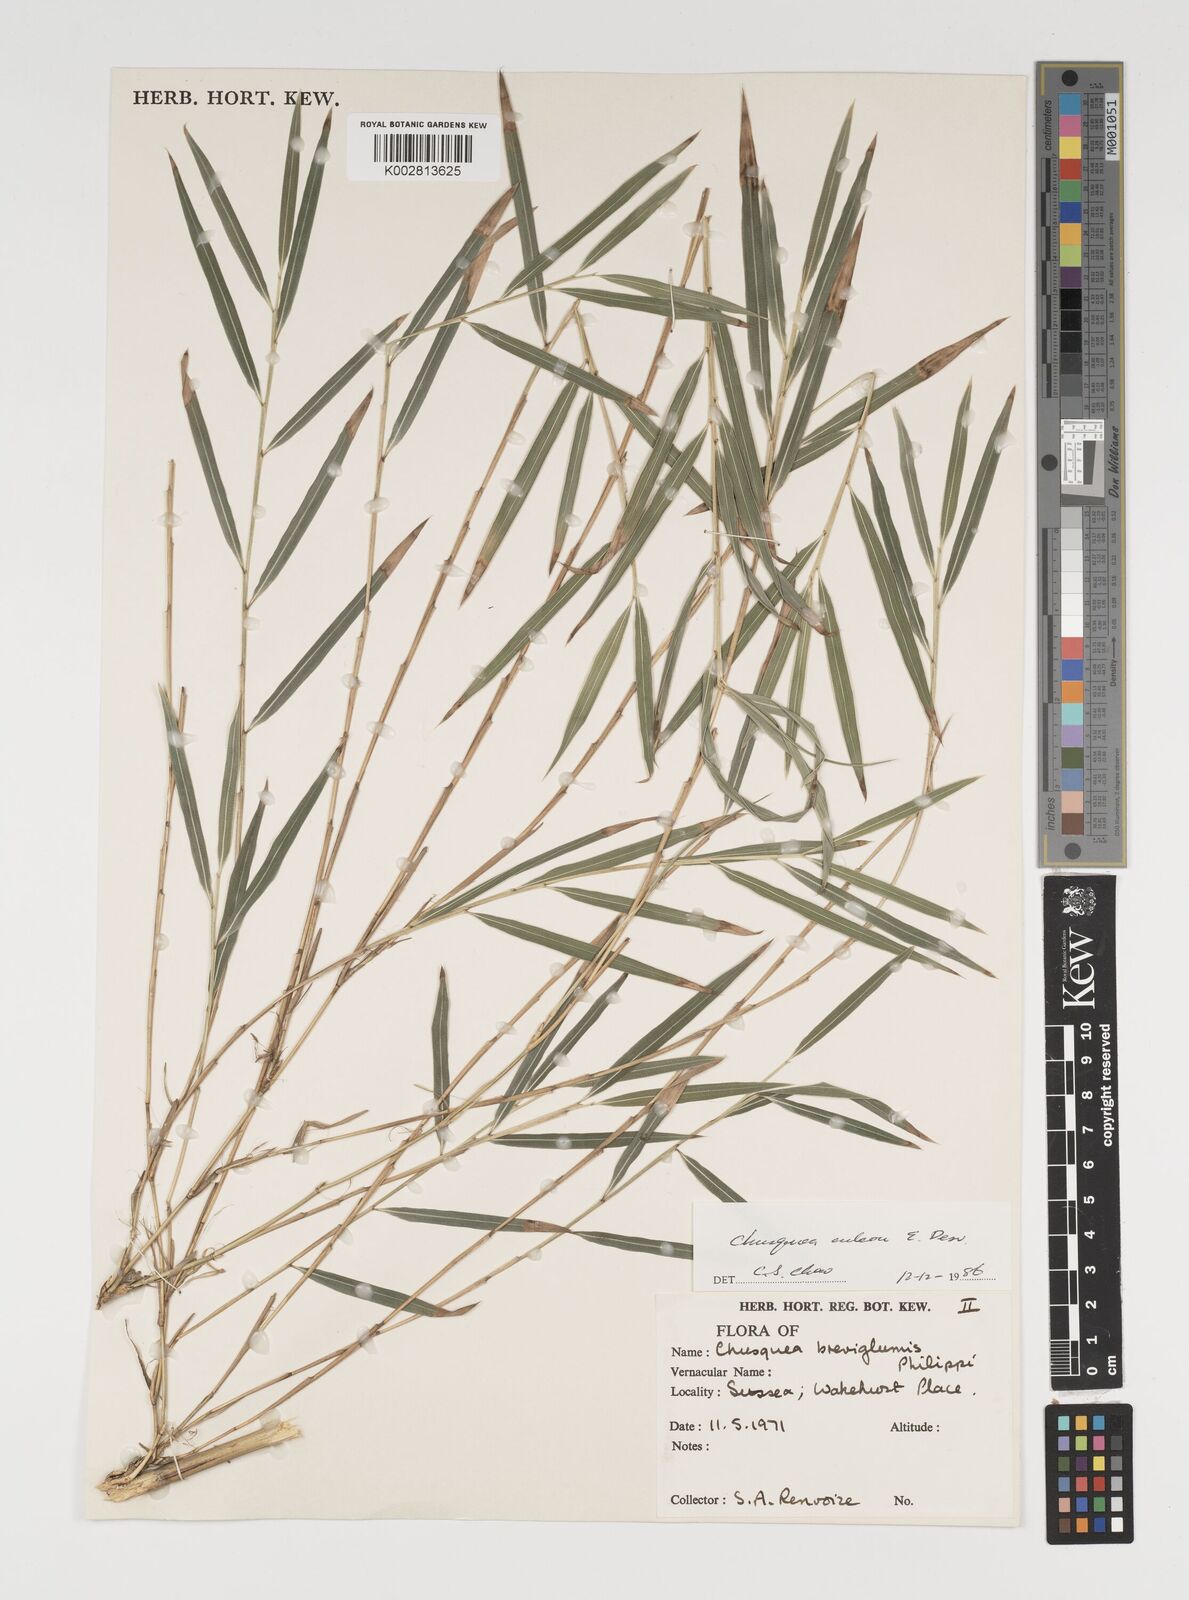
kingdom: Plantae
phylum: Tracheophyta
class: Liliopsida
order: Poales
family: Poaceae
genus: Chusquea
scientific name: Chusquea culeou
